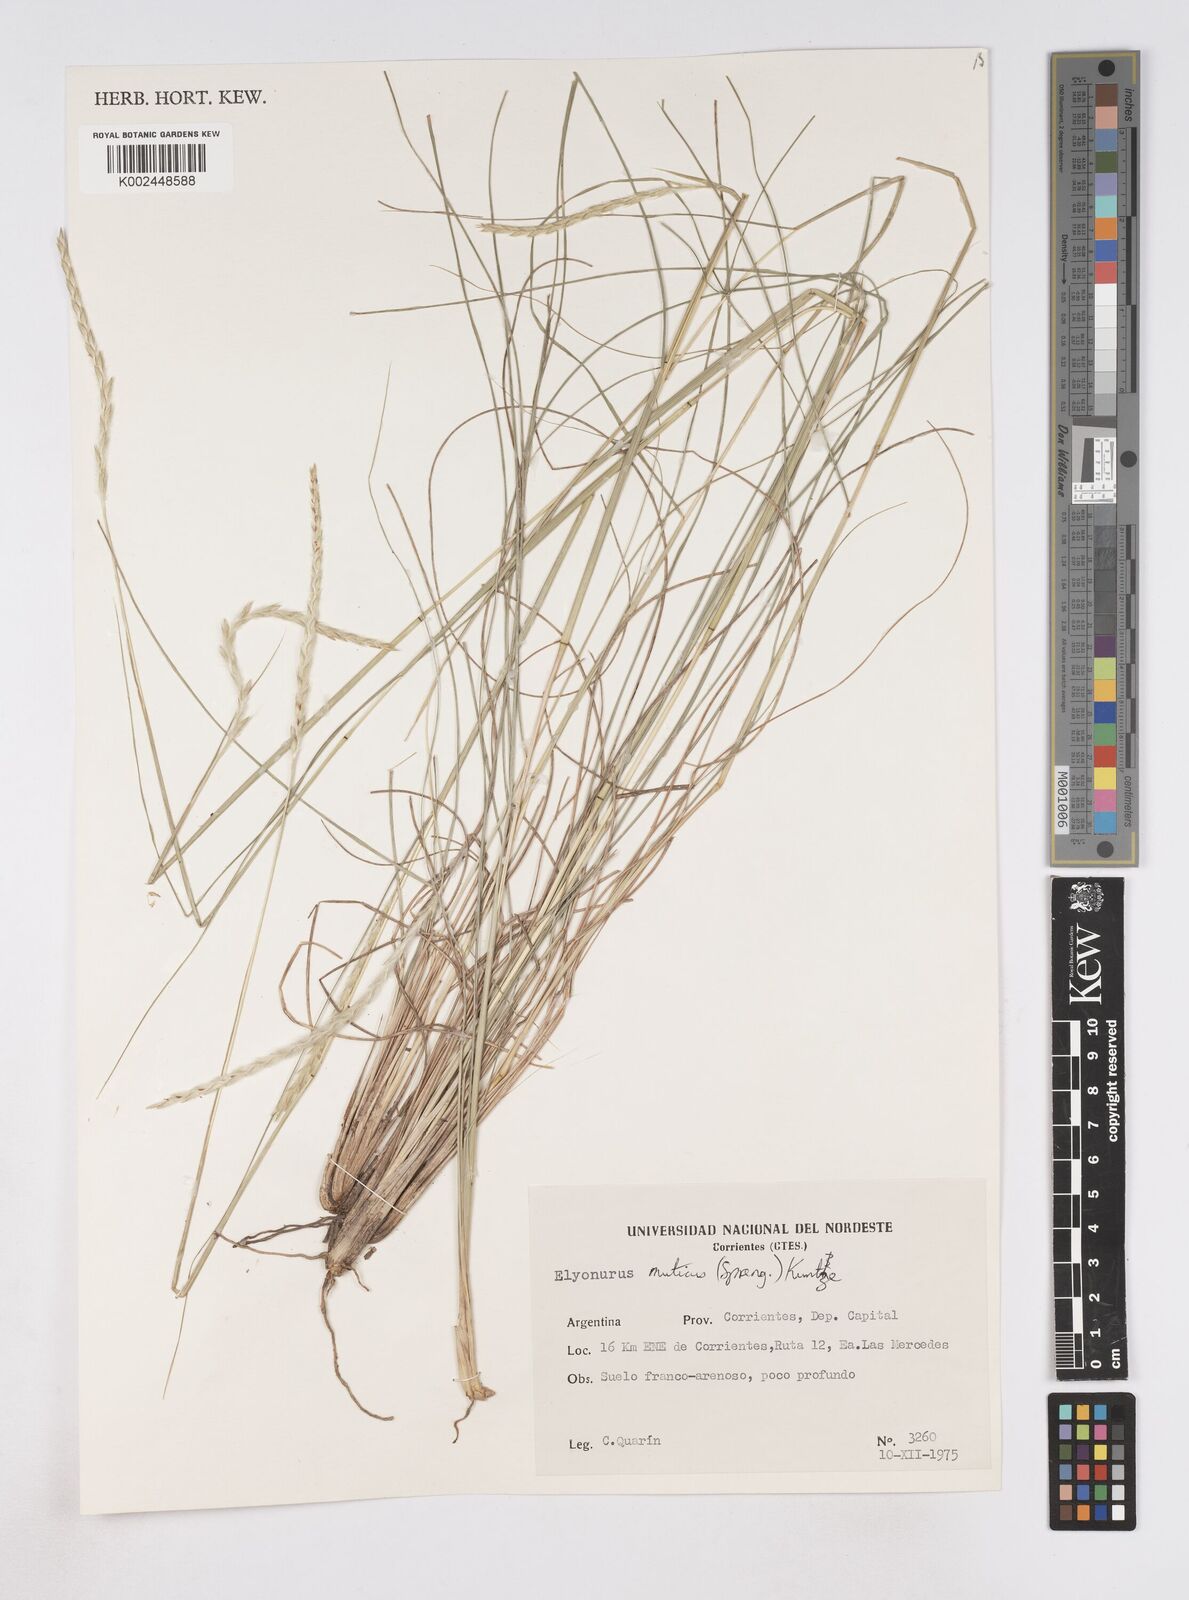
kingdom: Plantae
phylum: Tracheophyta
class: Liliopsida
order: Poales
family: Poaceae
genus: Elionurus
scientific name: Elionurus muticus
